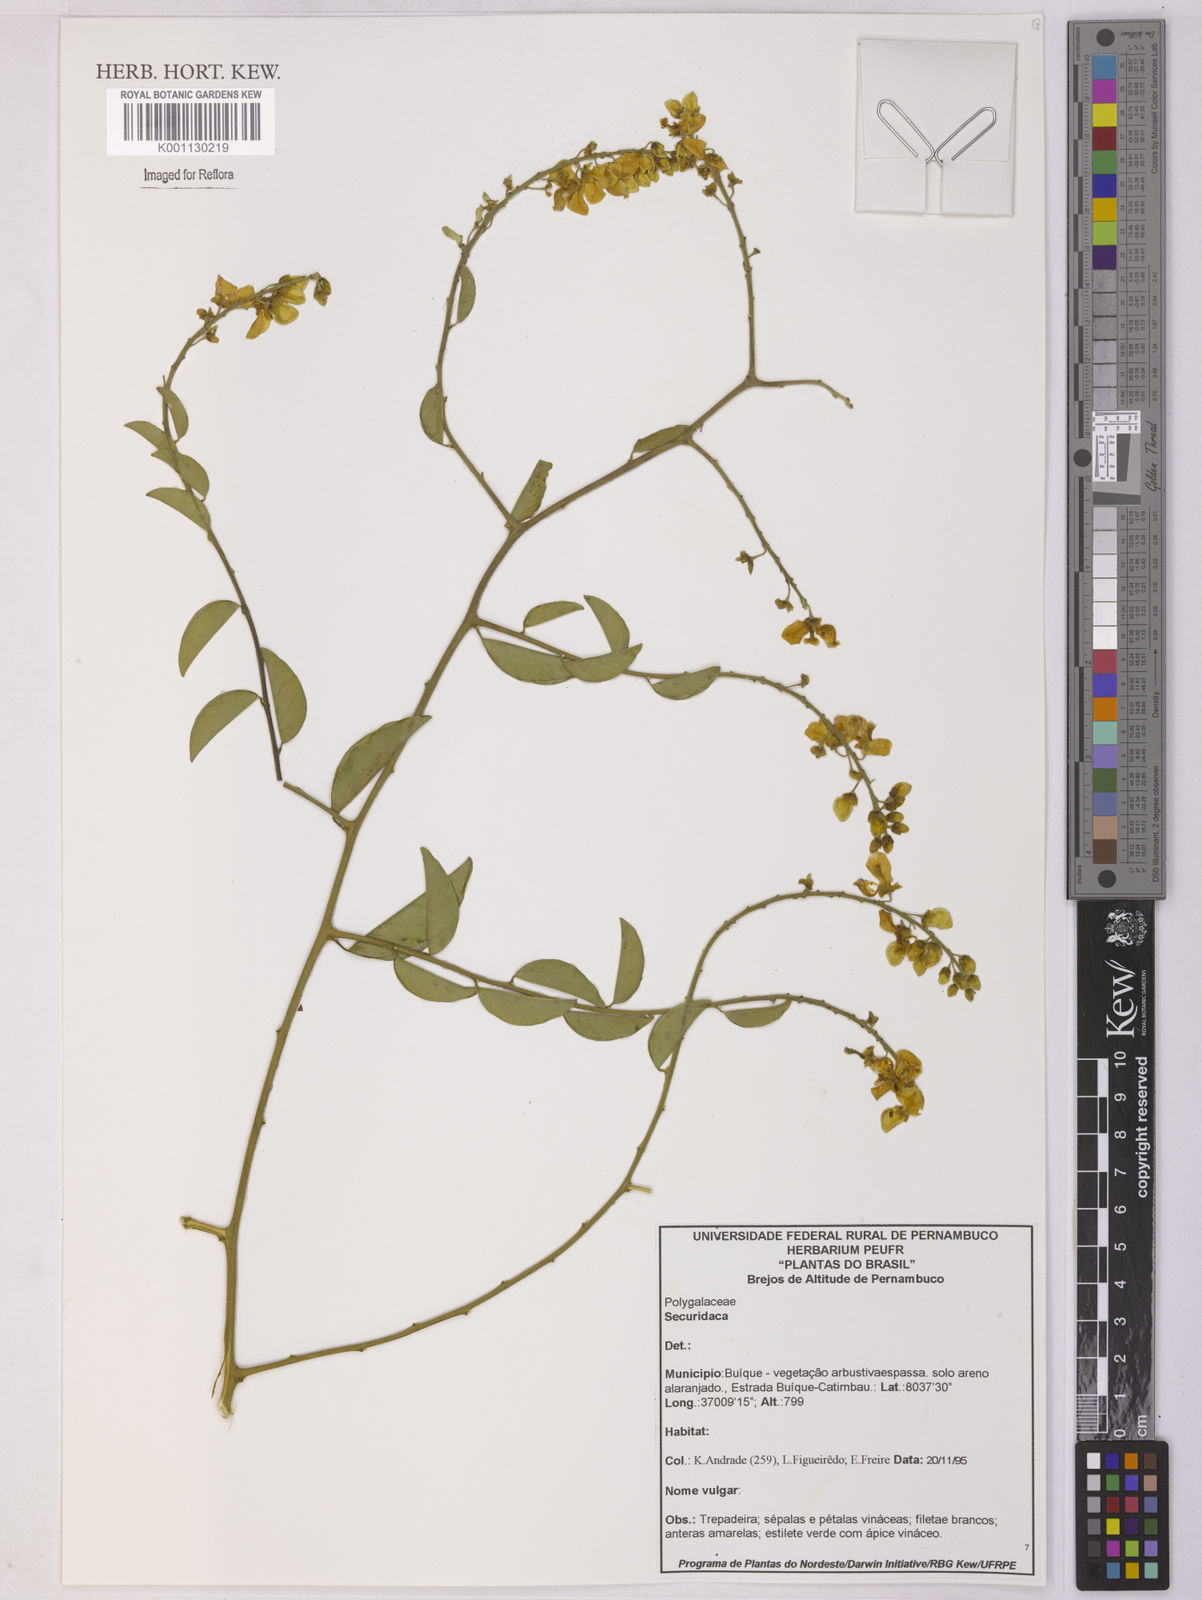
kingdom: Plantae
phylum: Tracheophyta
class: Magnoliopsida
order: Fabales
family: Polygalaceae
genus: Securidaca
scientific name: Securidaca
